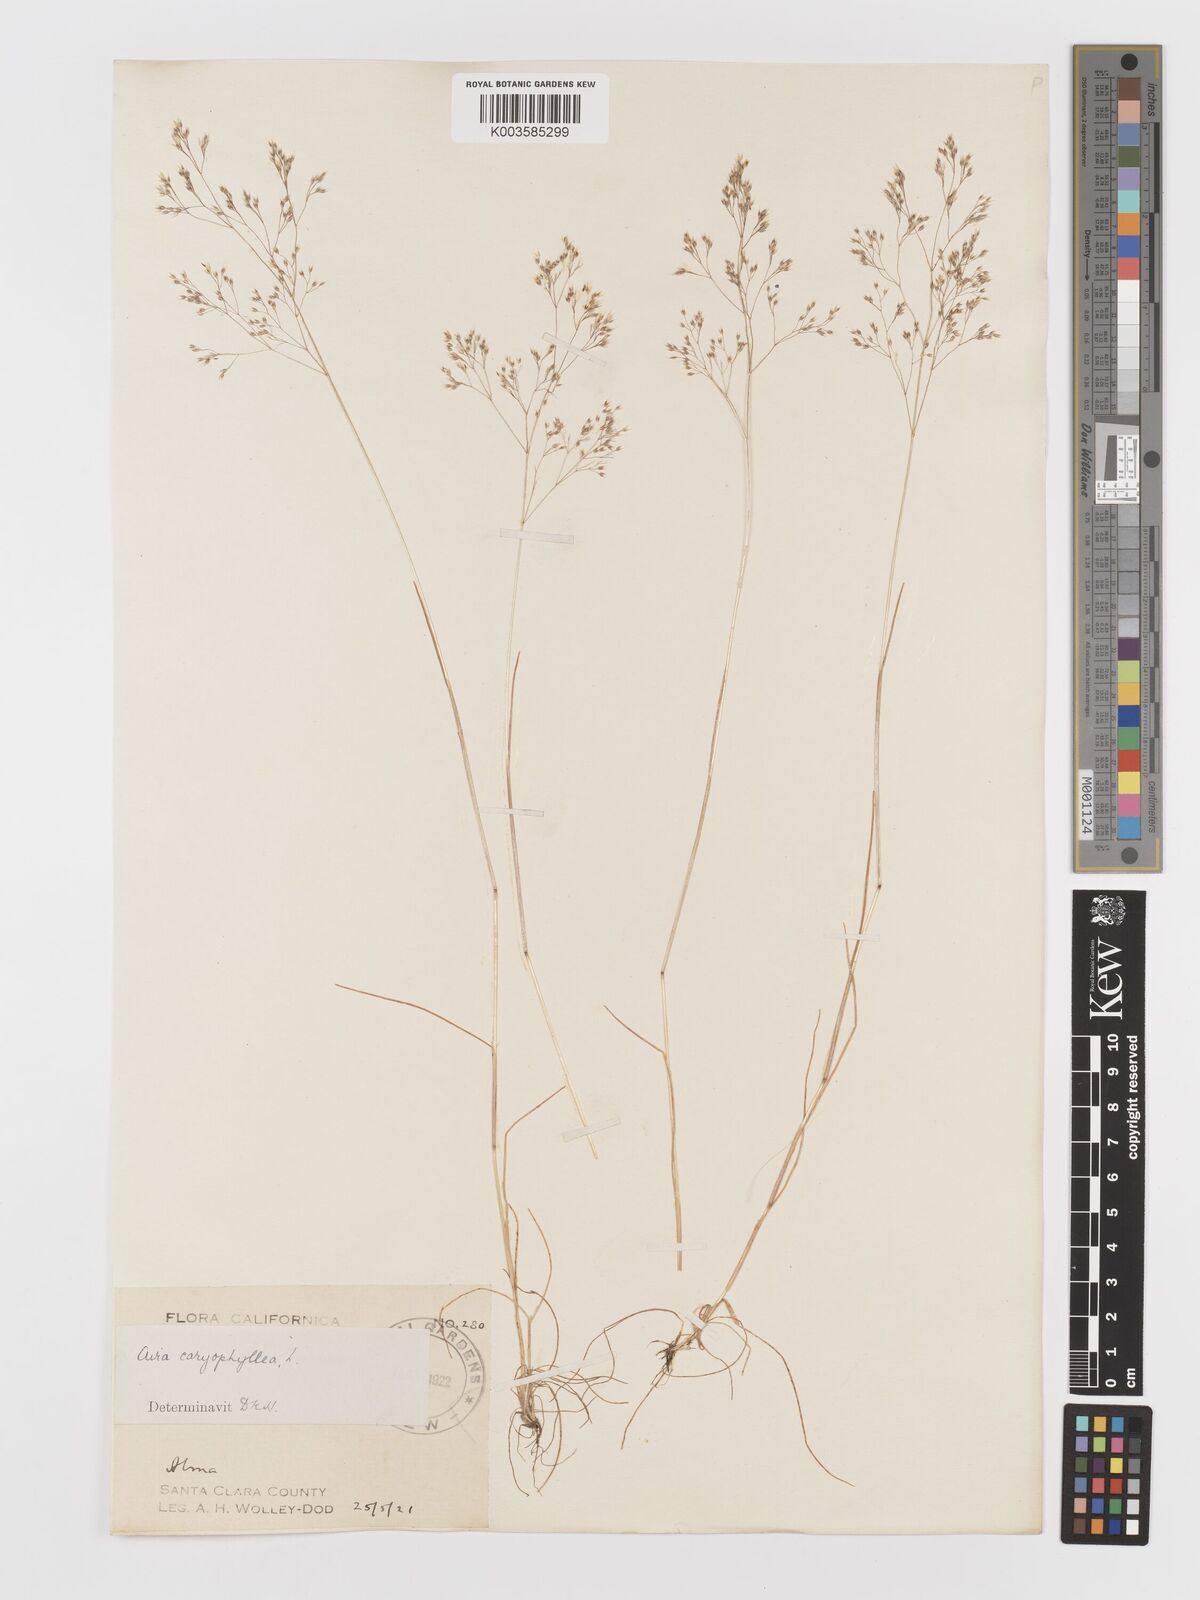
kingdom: Plantae
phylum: Tracheophyta
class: Liliopsida
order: Poales
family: Poaceae
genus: Aira
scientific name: Aira caryophyllea
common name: Silver hairgrass
